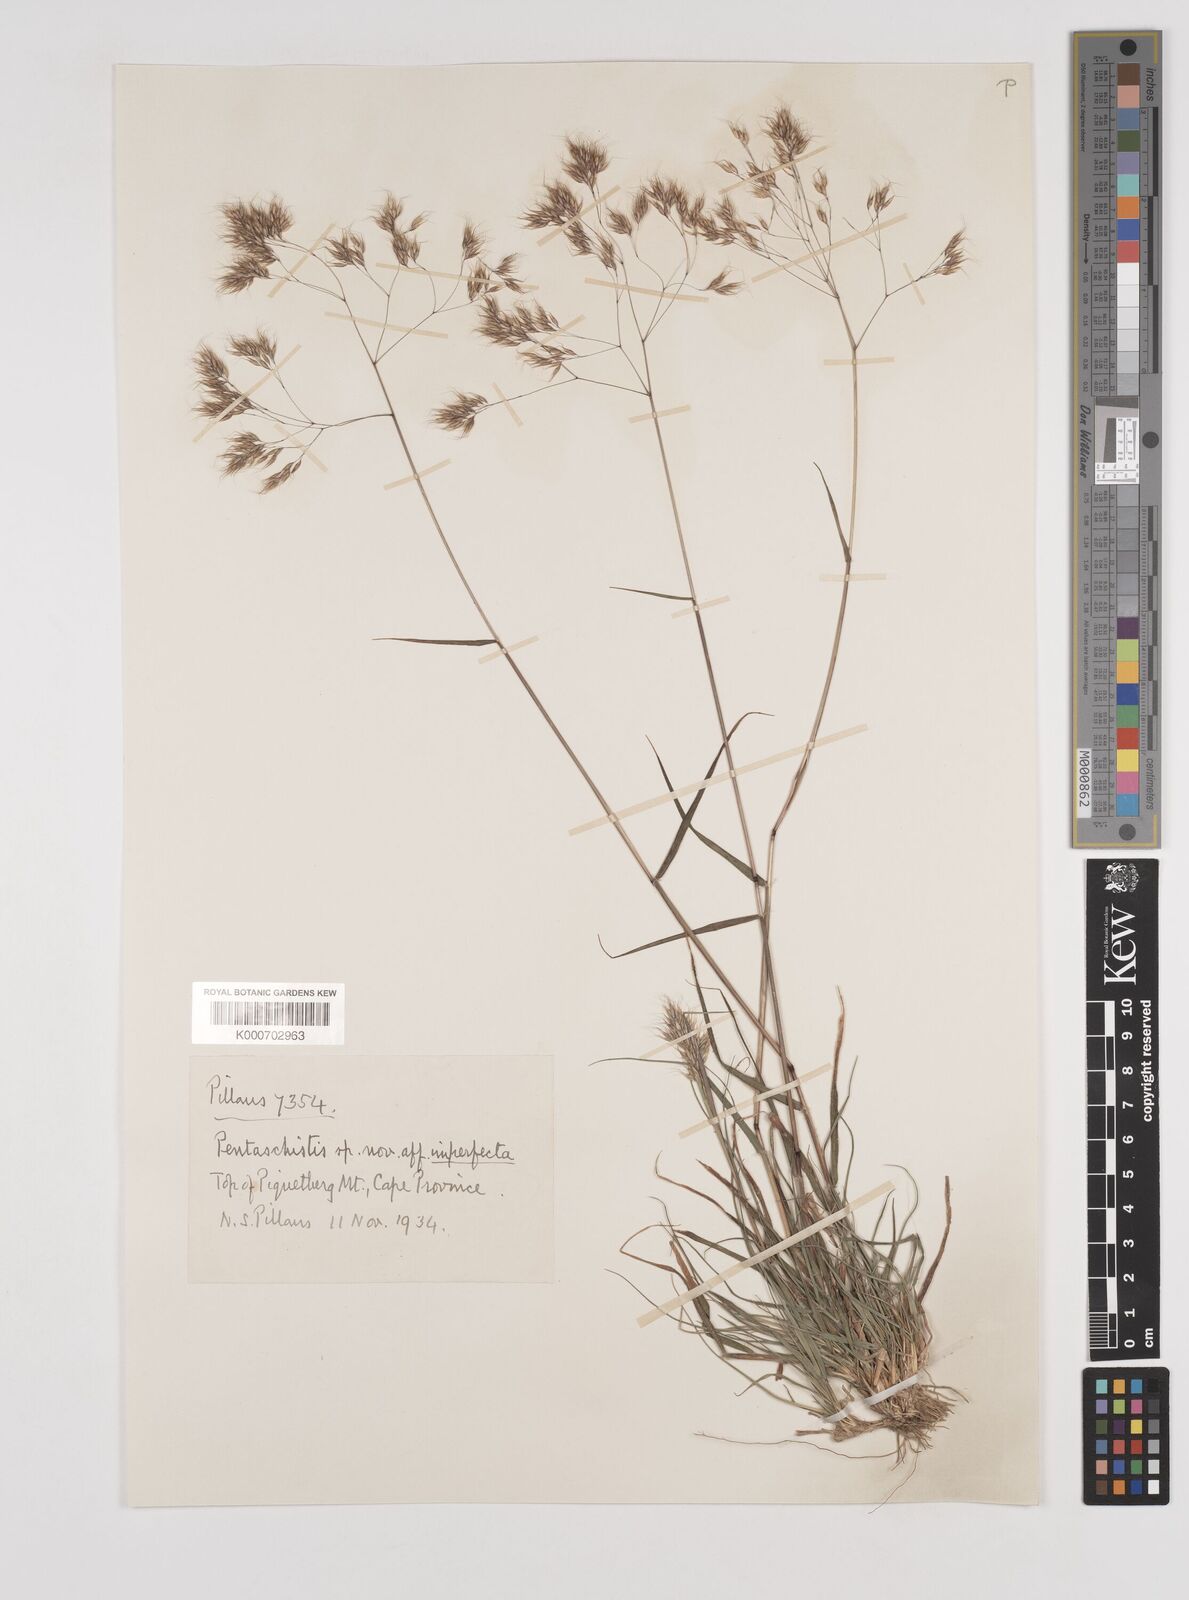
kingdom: Plantae
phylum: Tracheophyta
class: Liliopsida
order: Poales
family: Poaceae
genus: Pentameris
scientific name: Pentameris rupestris
